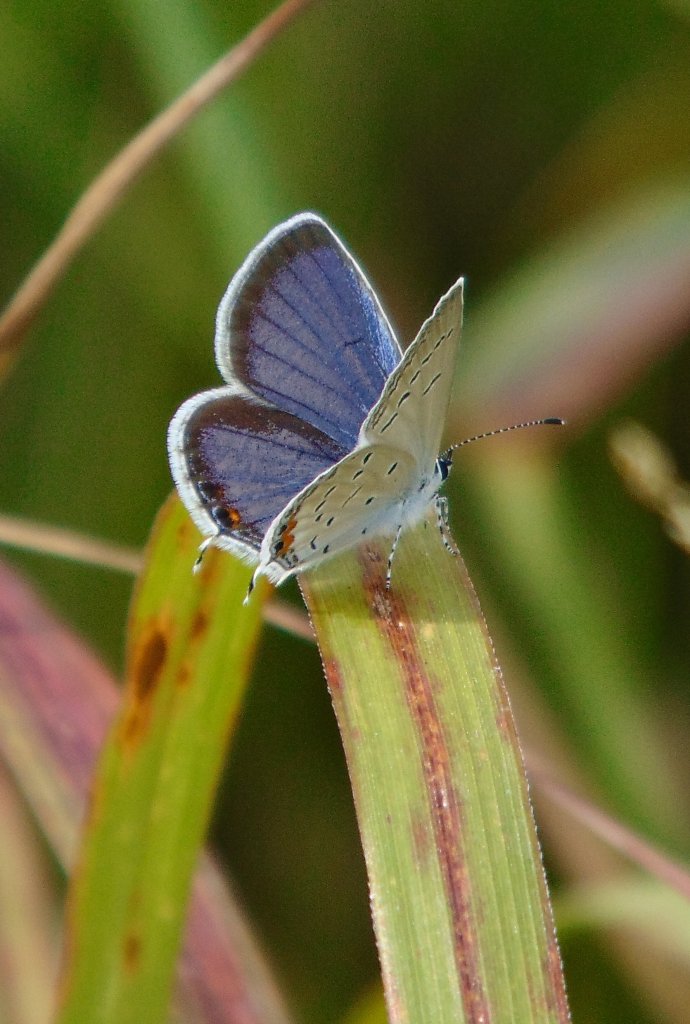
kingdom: Animalia
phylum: Arthropoda
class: Insecta
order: Lepidoptera
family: Lycaenidae
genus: Elkalyce
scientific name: Elkalyce comyntas
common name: Eastern Tailed-Blue
